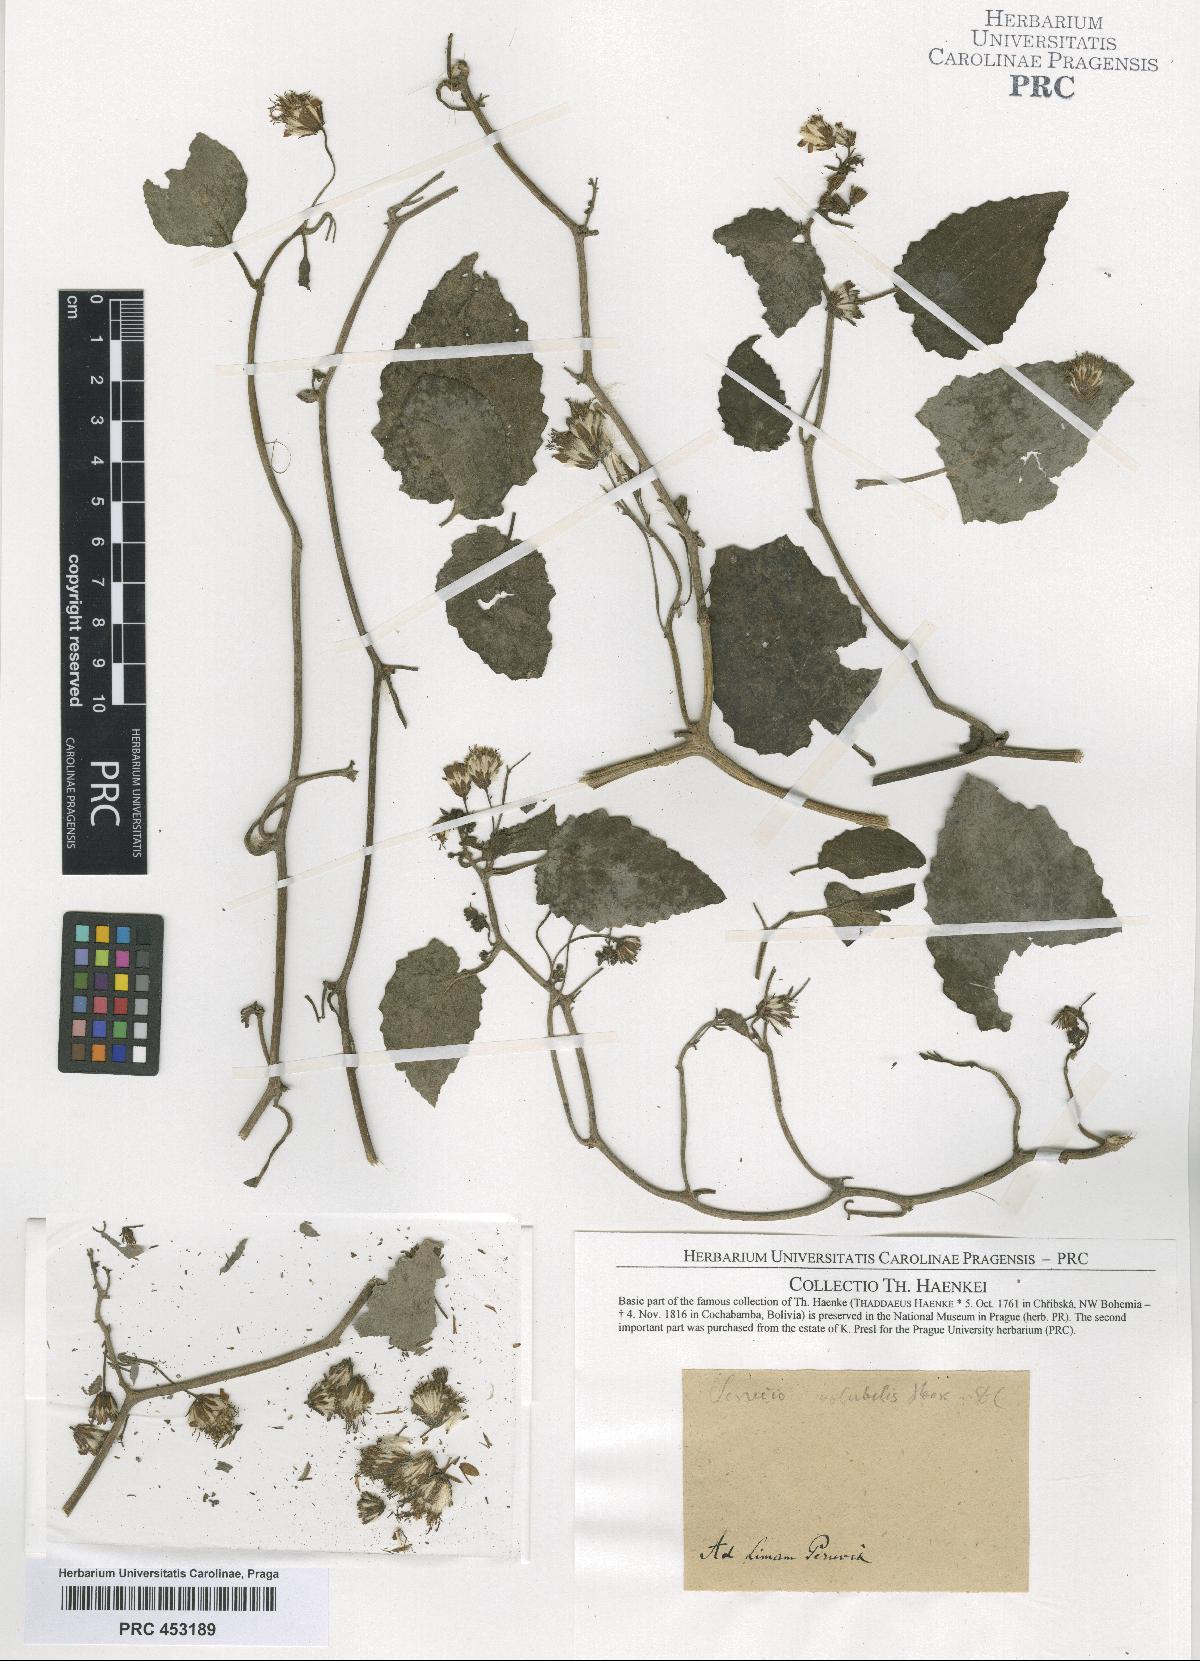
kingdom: Plantae
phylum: Tracheophyta
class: Magnoliopsida
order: Asterales
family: Asteraceae
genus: Senecio
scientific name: Senecio
